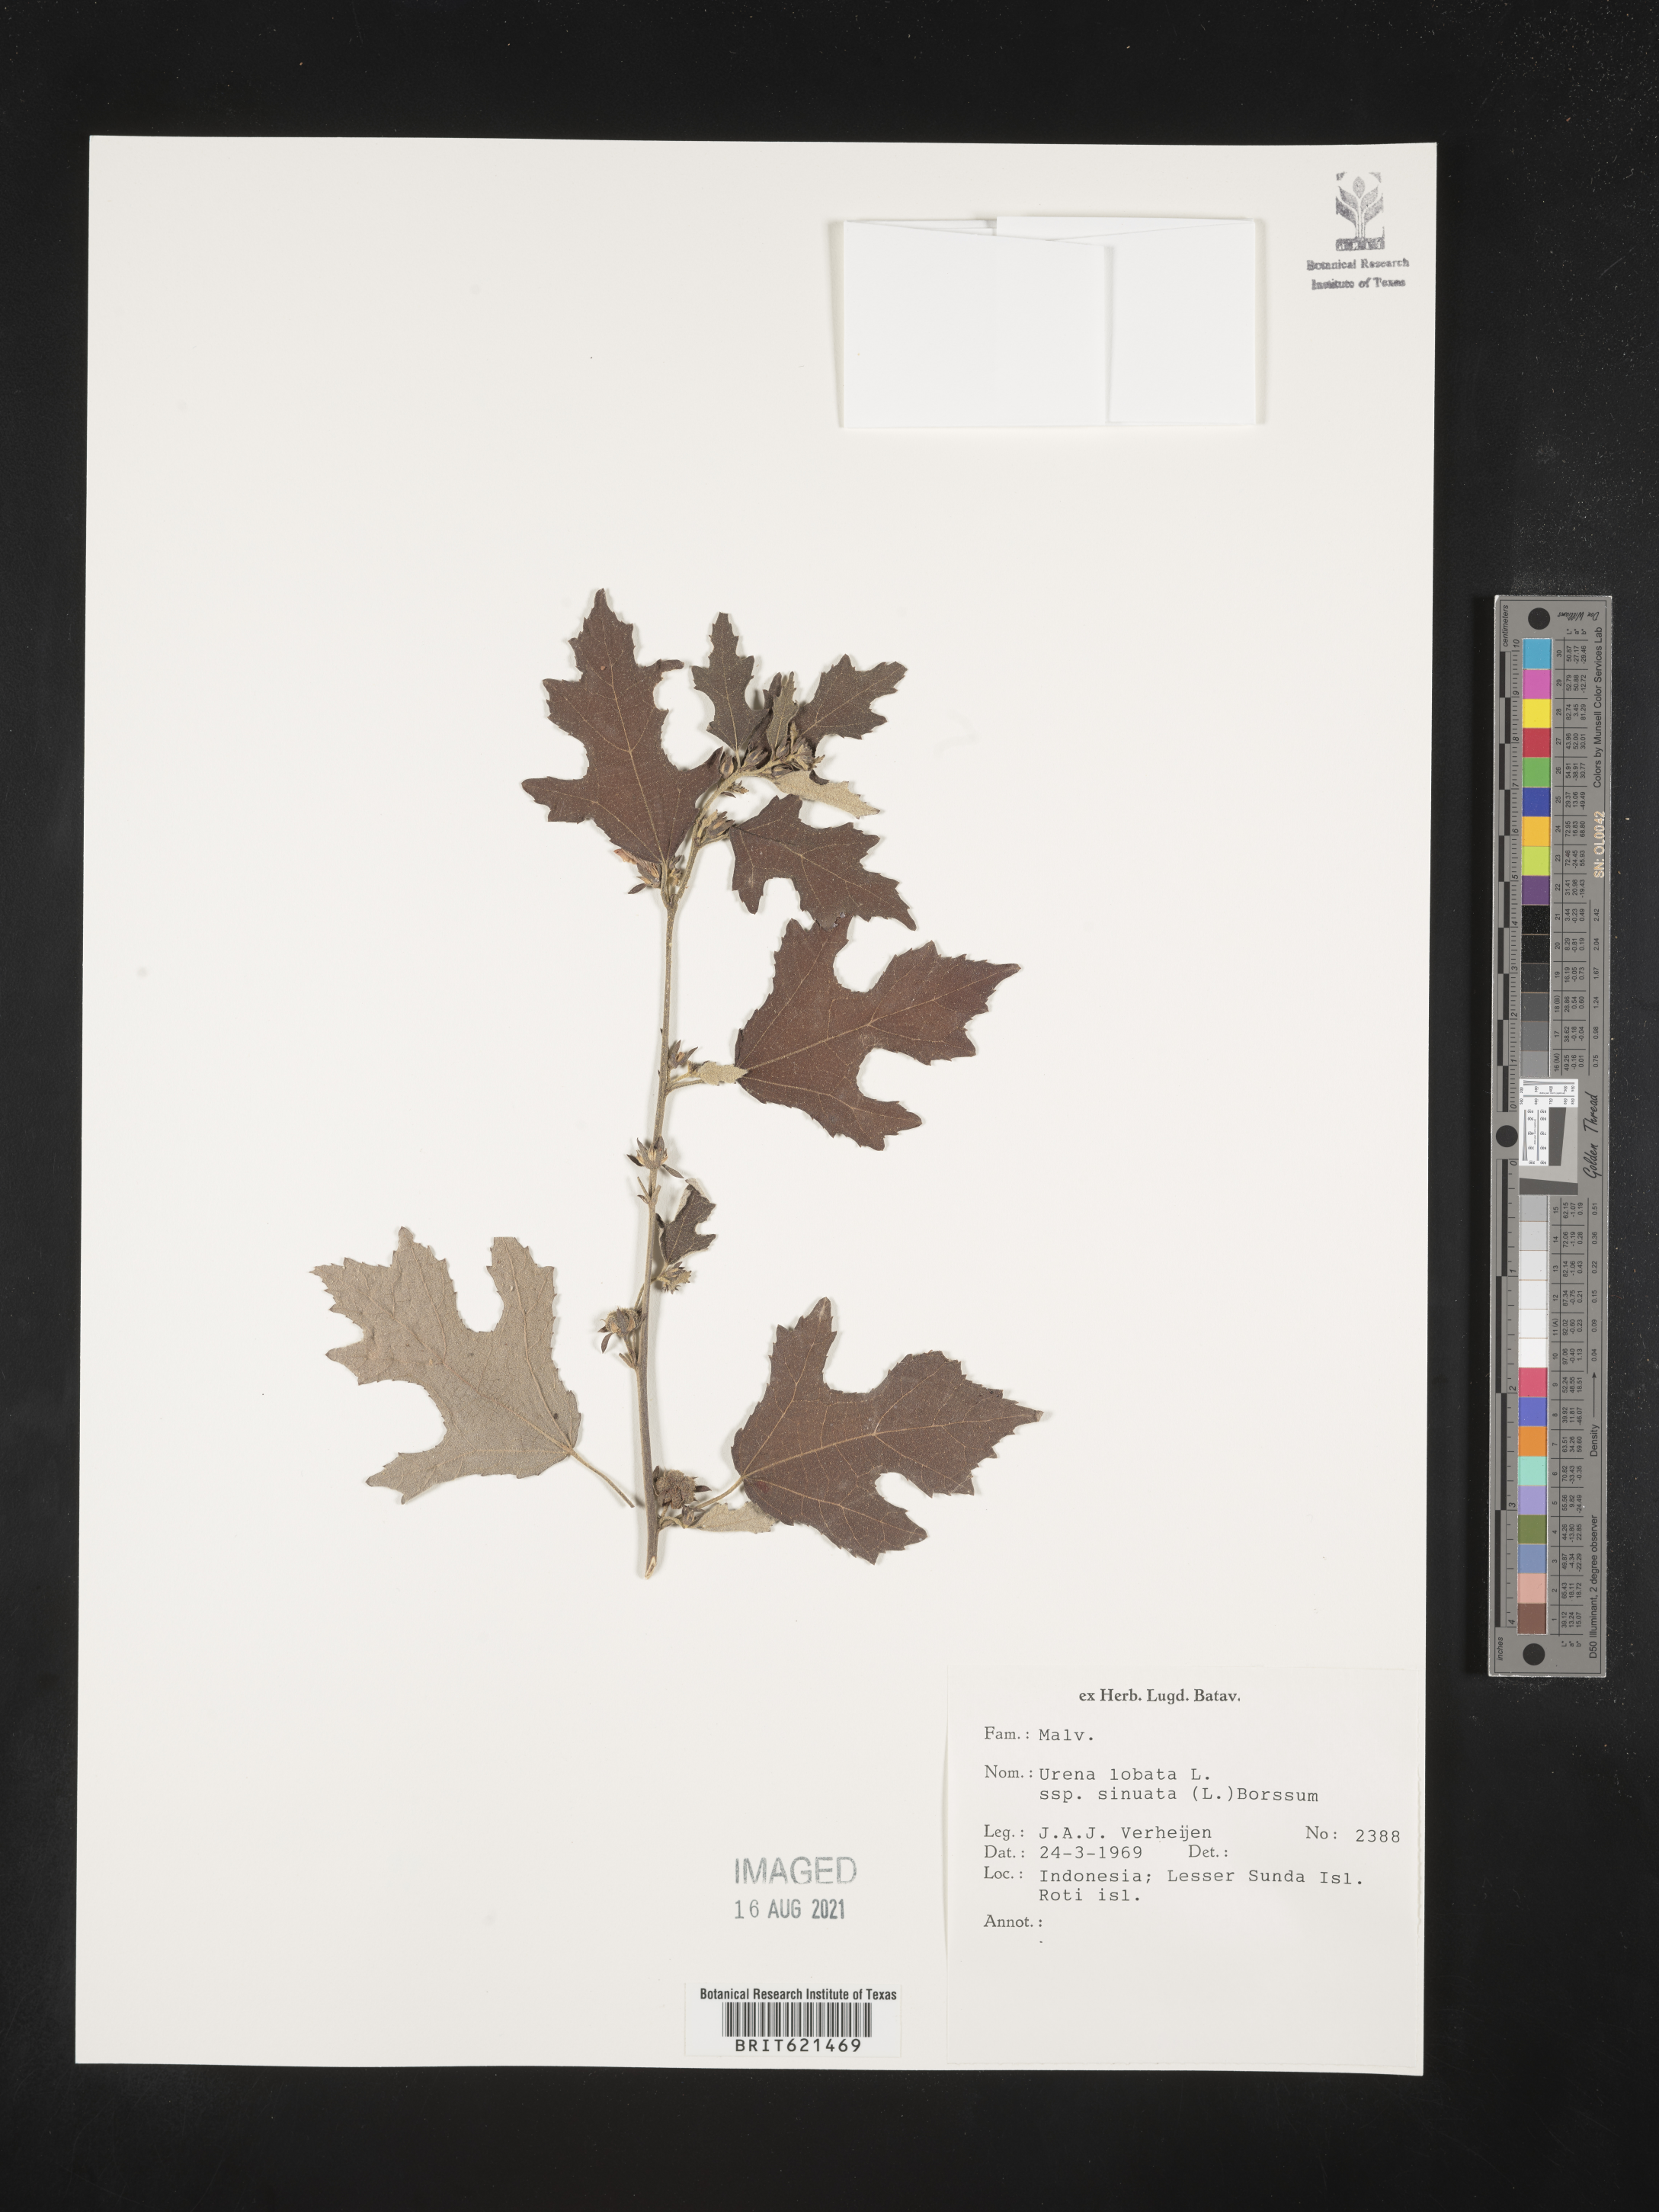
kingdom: Plantae
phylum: Tracheophyta
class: Magnoliopsida
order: Malvales
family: Malvaceae
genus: Urena
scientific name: Urena procumbens
